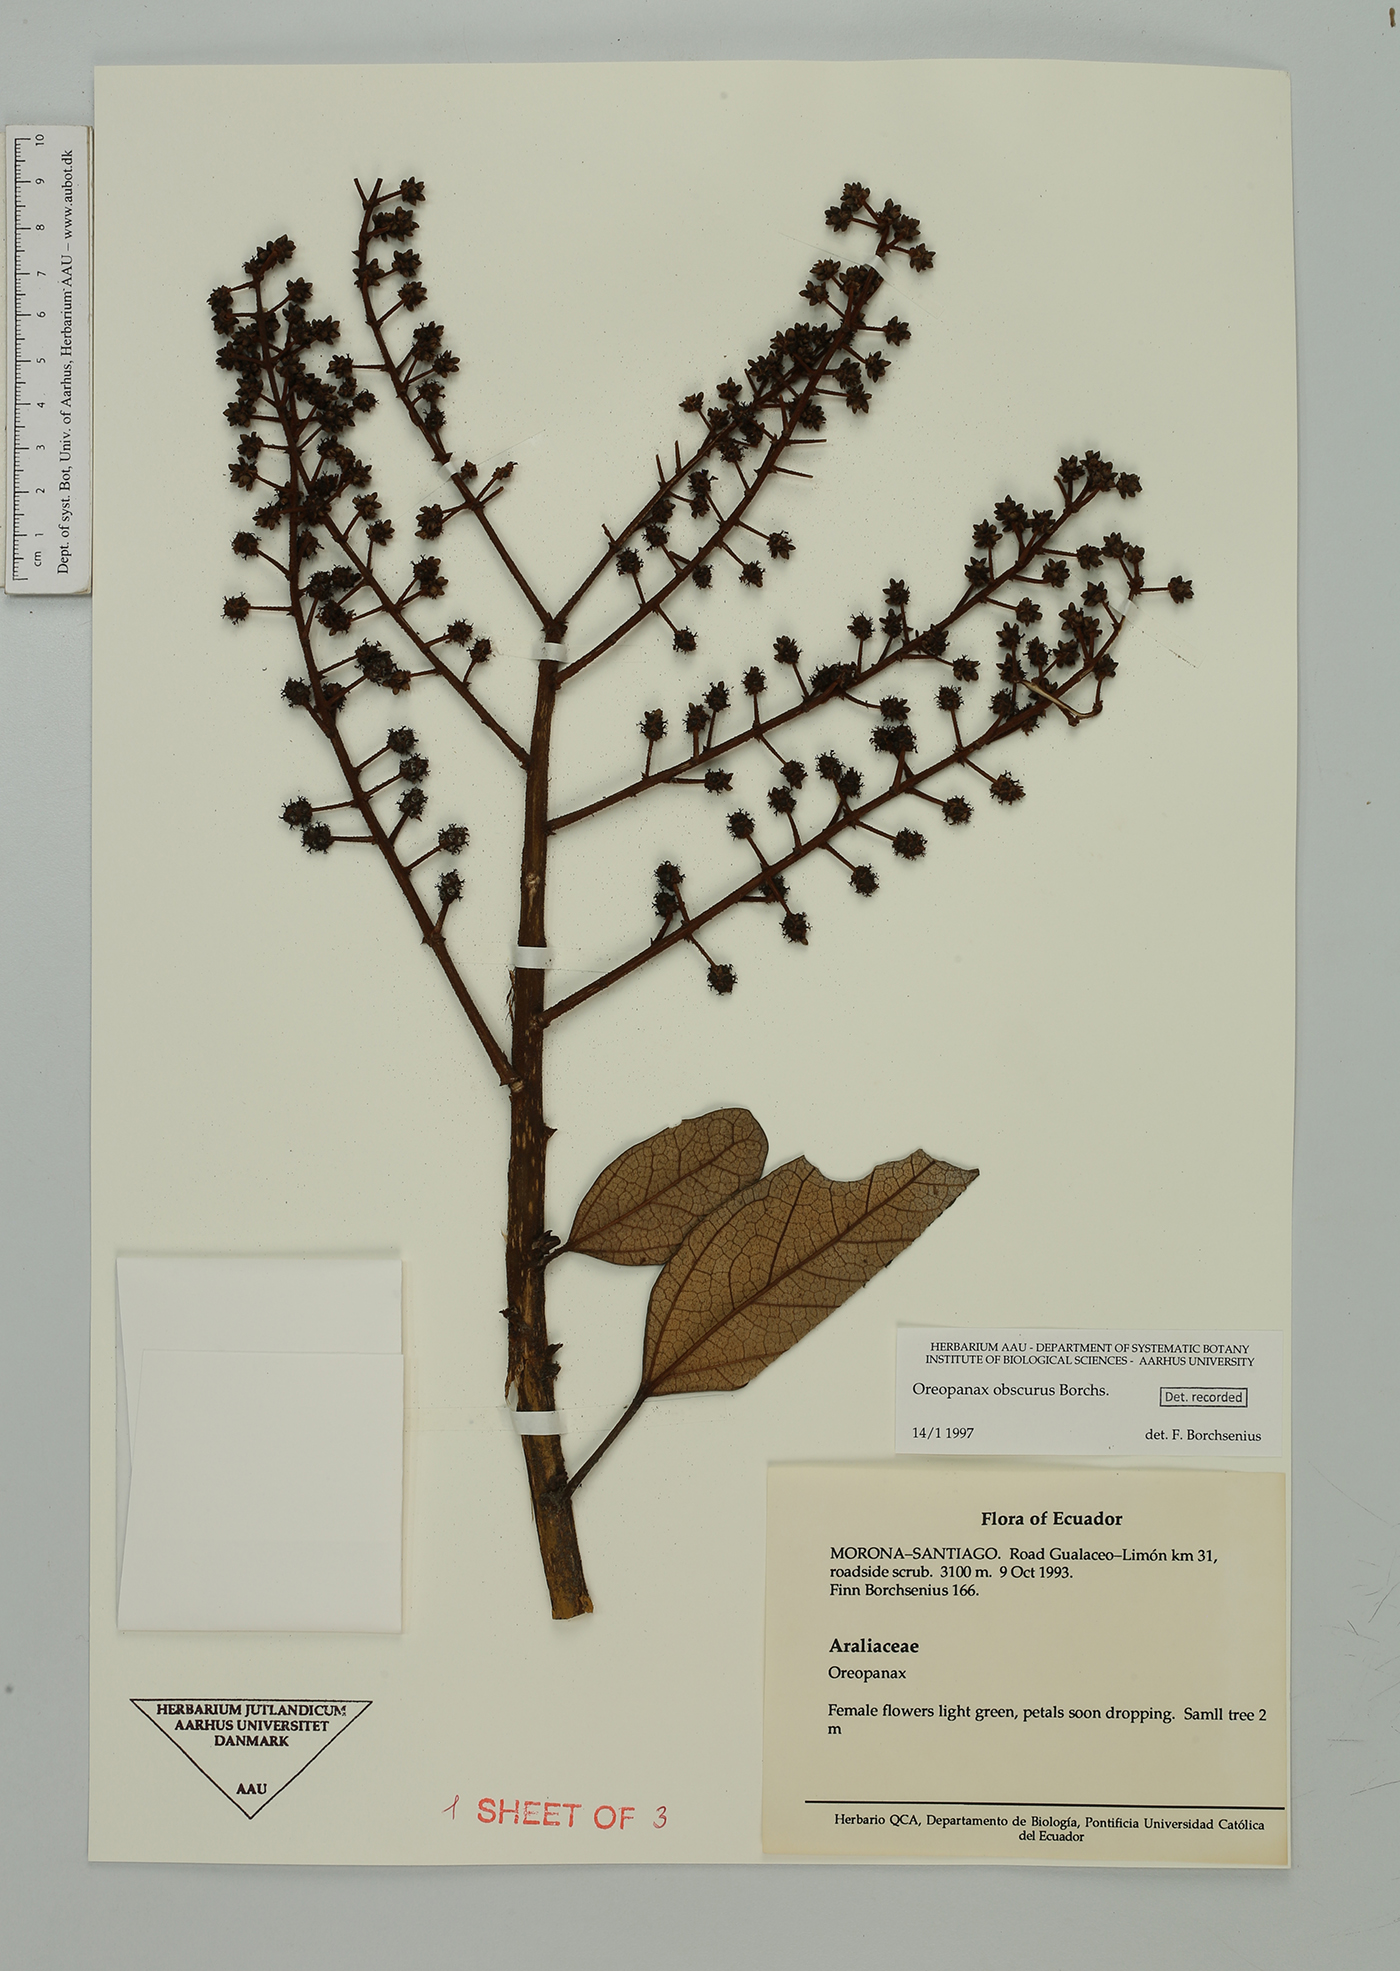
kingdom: Plantae
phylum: Tracheophyta
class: Magnoliopsida
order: Apiales
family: Araliaceae
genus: Oreopanax
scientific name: Oreopanax obscurus
